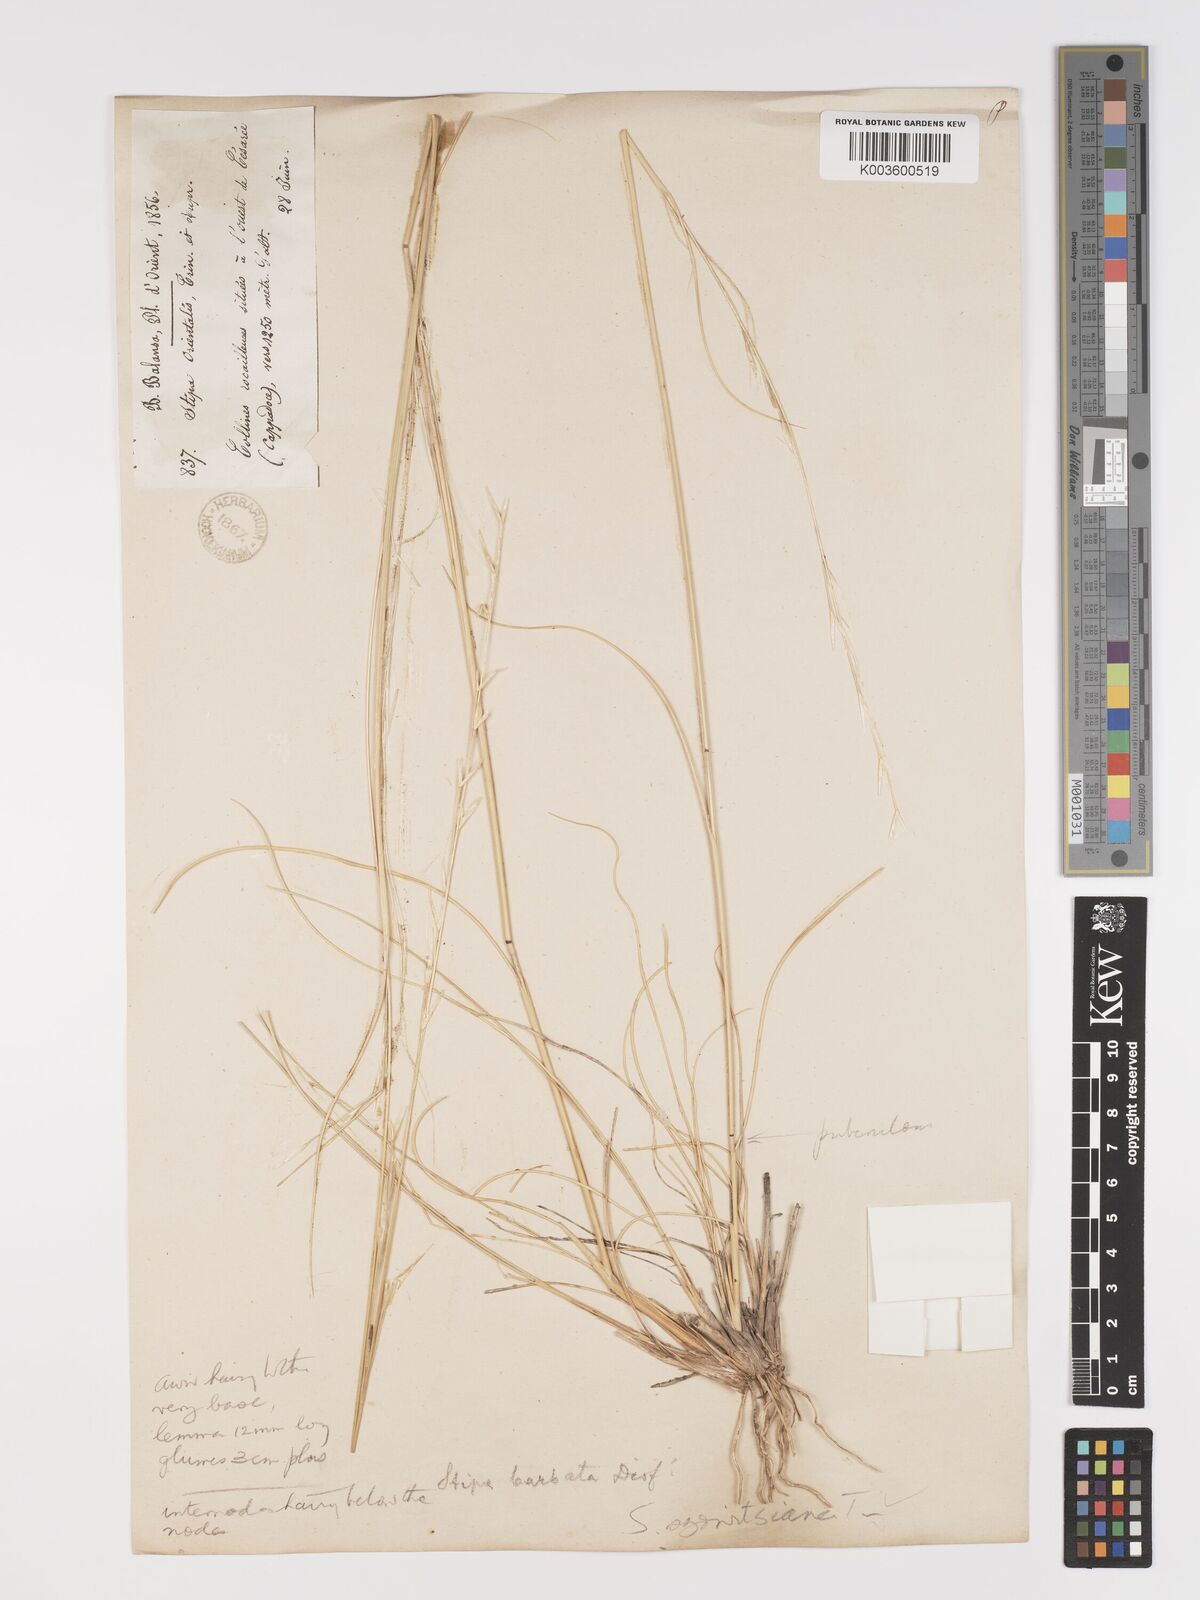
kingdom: Plantae
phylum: Tracheophyta
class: Liliopsida
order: Poales
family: Poaceae
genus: Stipa
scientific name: Stipa barbata
